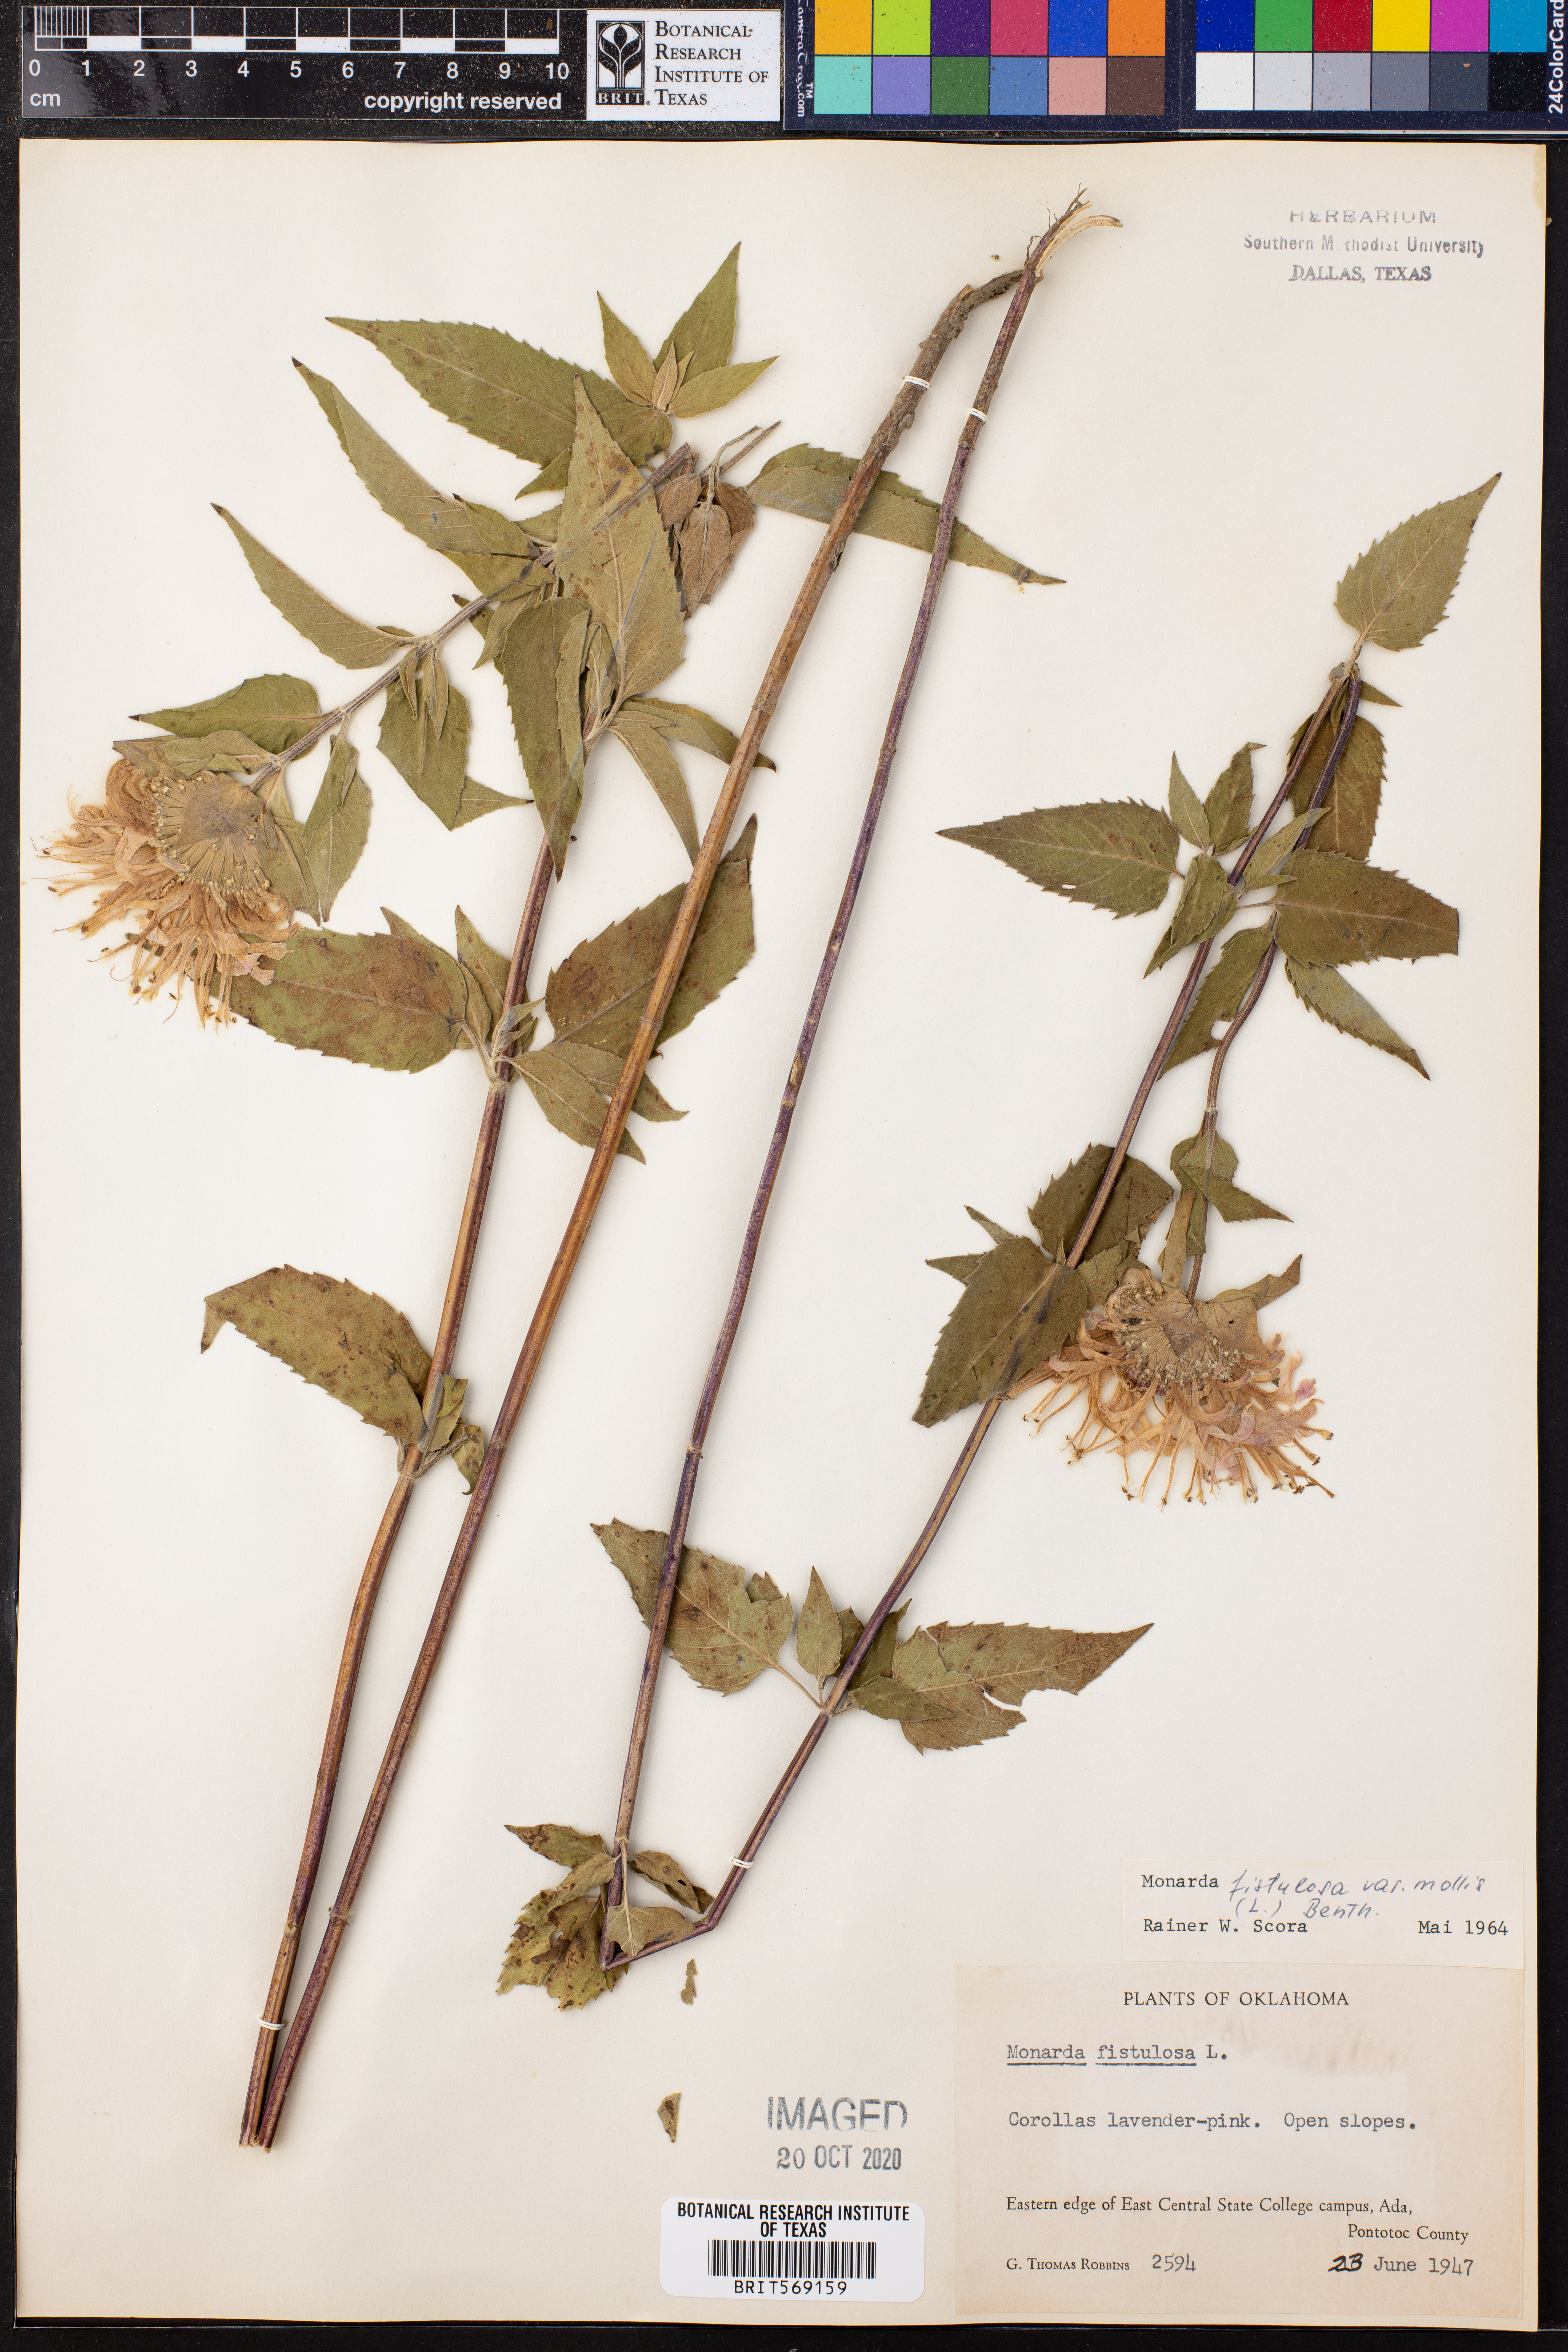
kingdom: Plantae
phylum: Tracheophyta
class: Magnoliopsida
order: Lamiales
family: Lamiaceae
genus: Monarda
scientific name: Monarda fistulosa
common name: Purple beebalm
